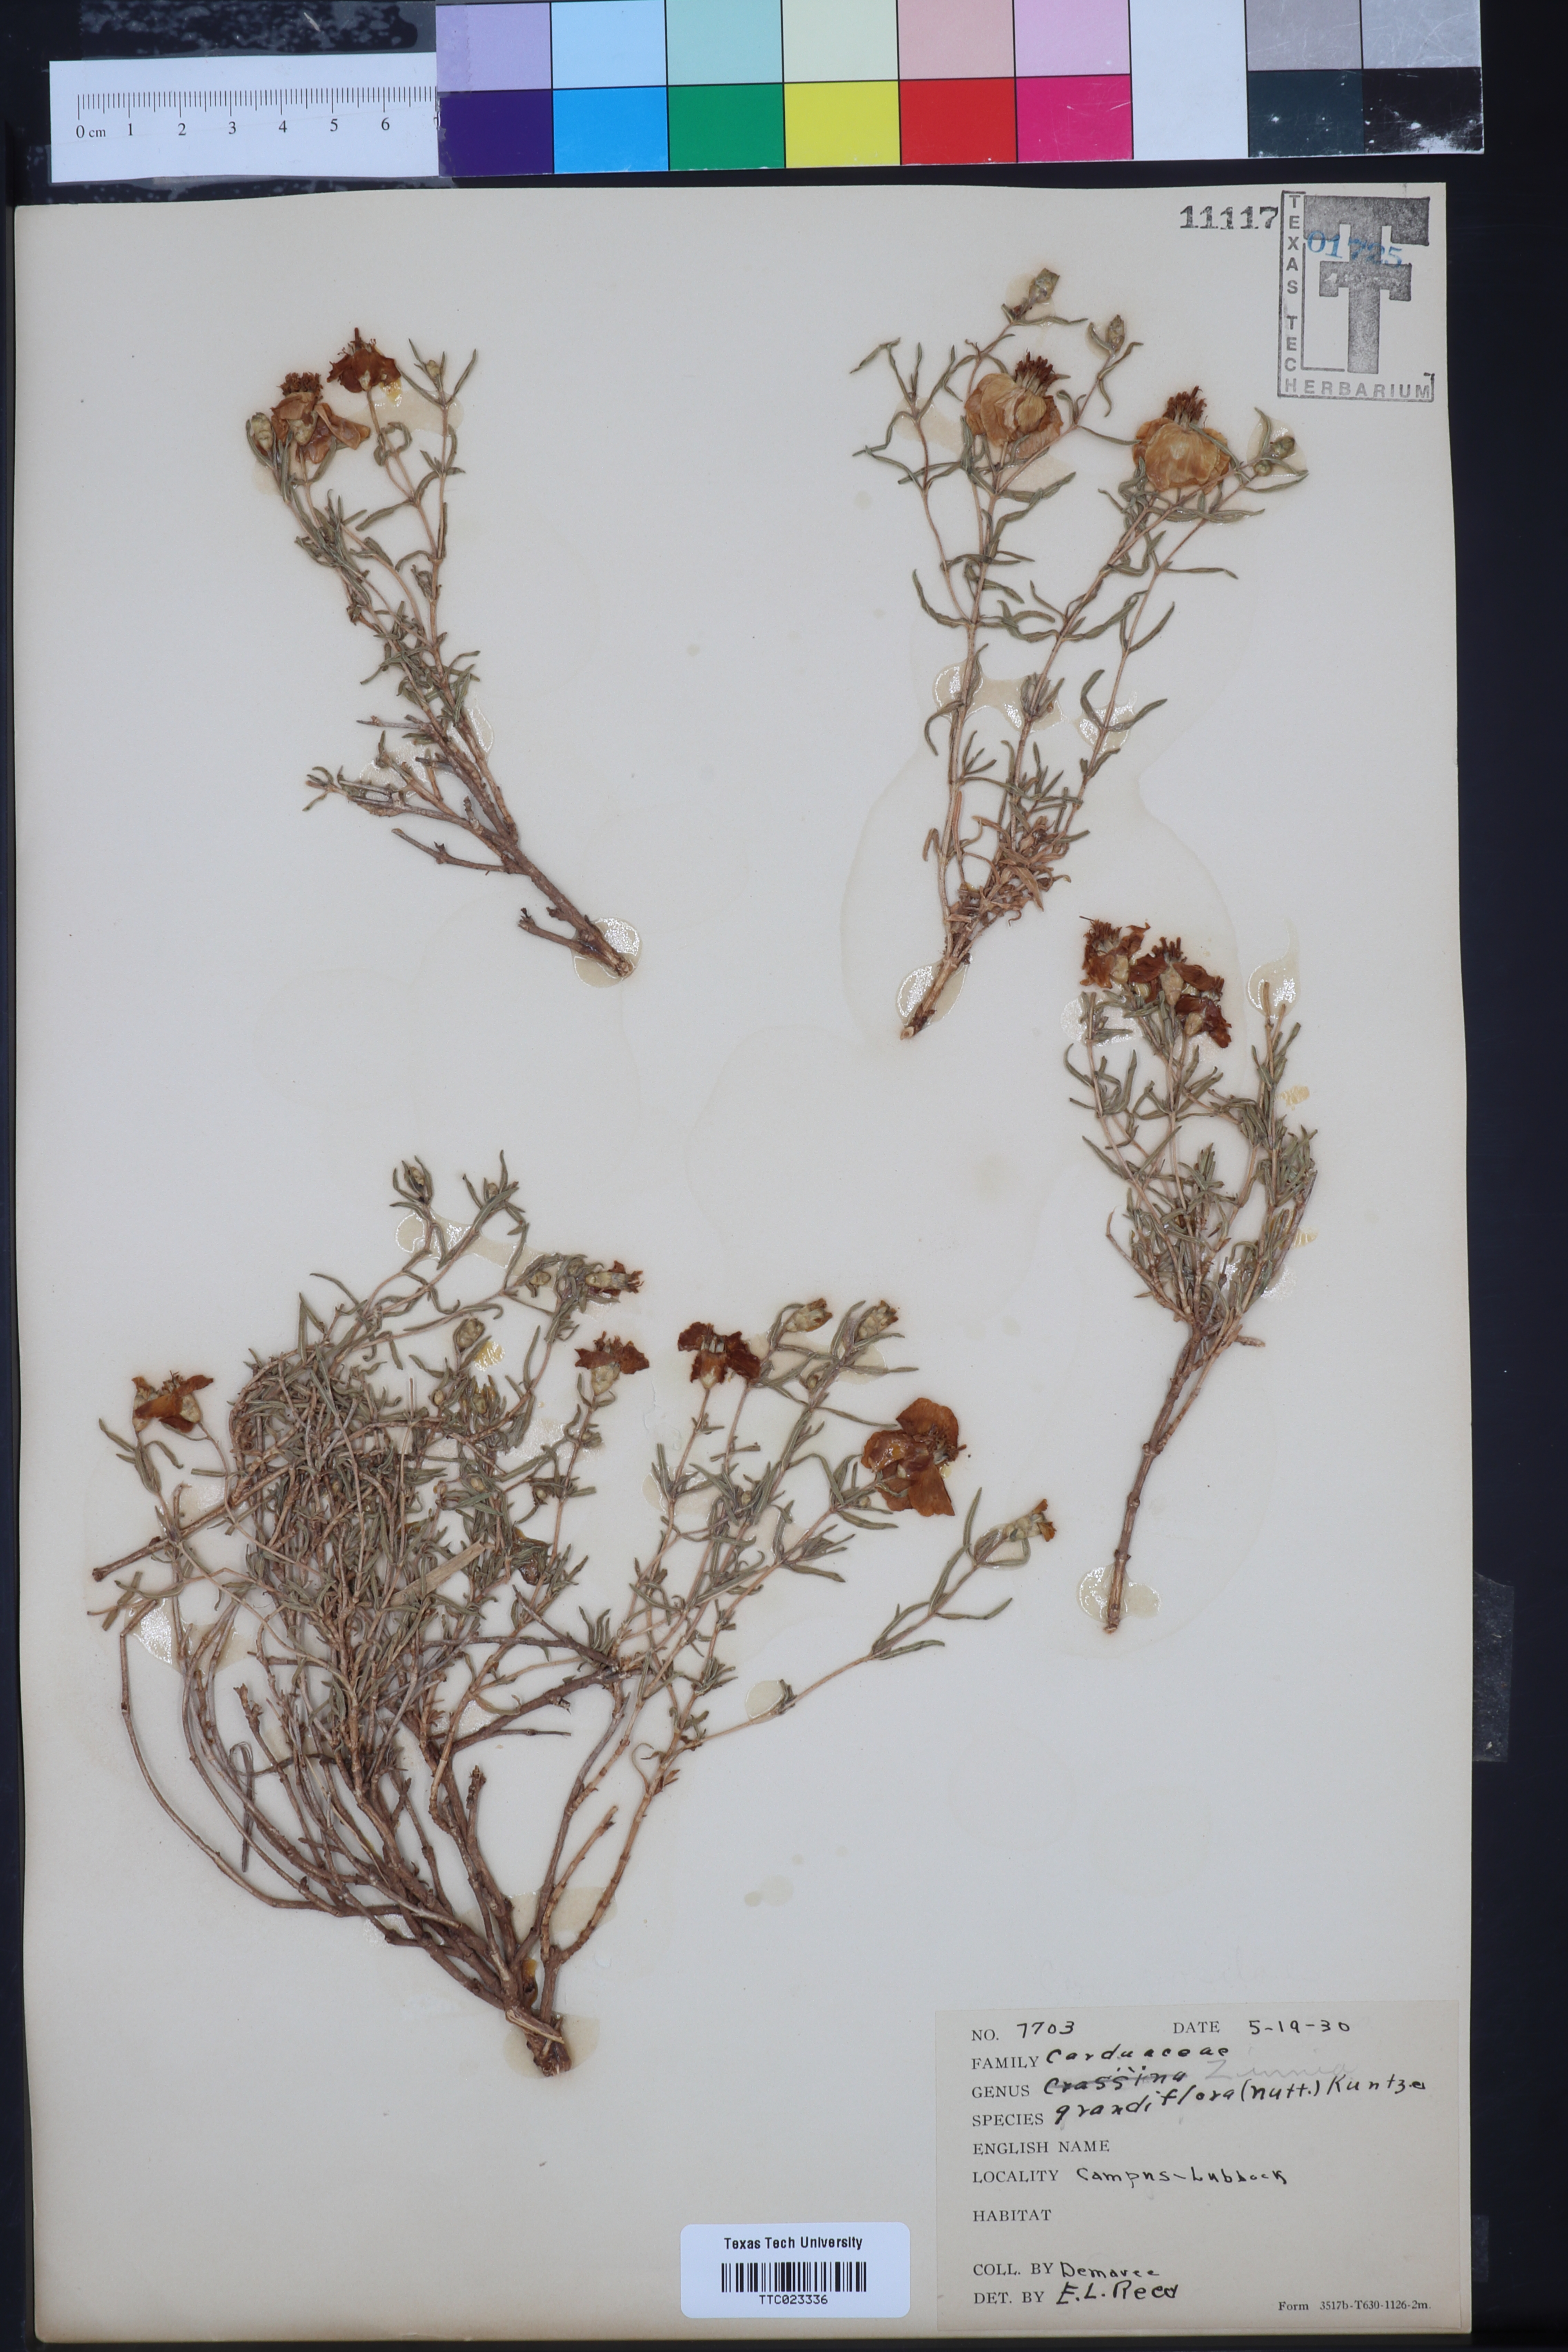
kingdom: Plantae
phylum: Tracheophyta
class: Magnoliopsida
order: Asterales
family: Asteraceae
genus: Zinnia
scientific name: Zinnia grandiflora
